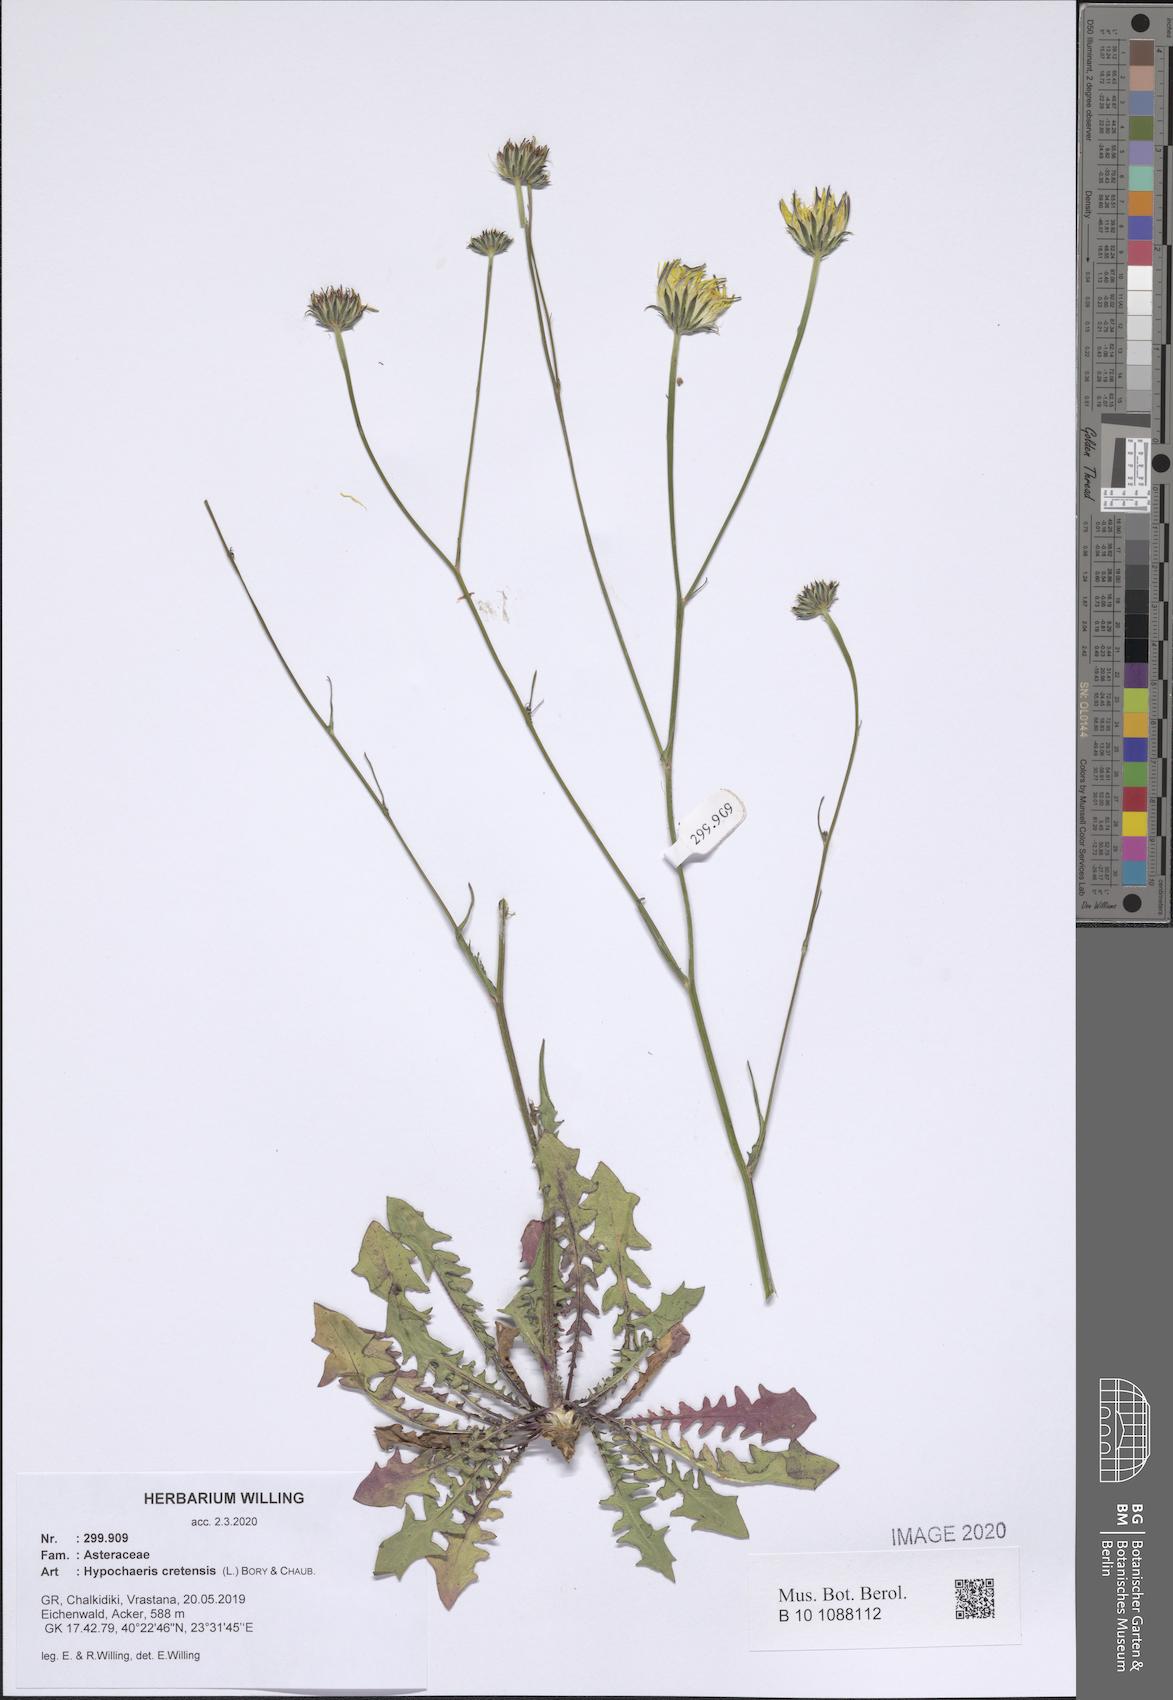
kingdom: Plantae
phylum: Tracheophyta
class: Magnoliopsida
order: Asterales
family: Asteraceae
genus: Hypochaeris
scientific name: Hypochaeris cretensis
